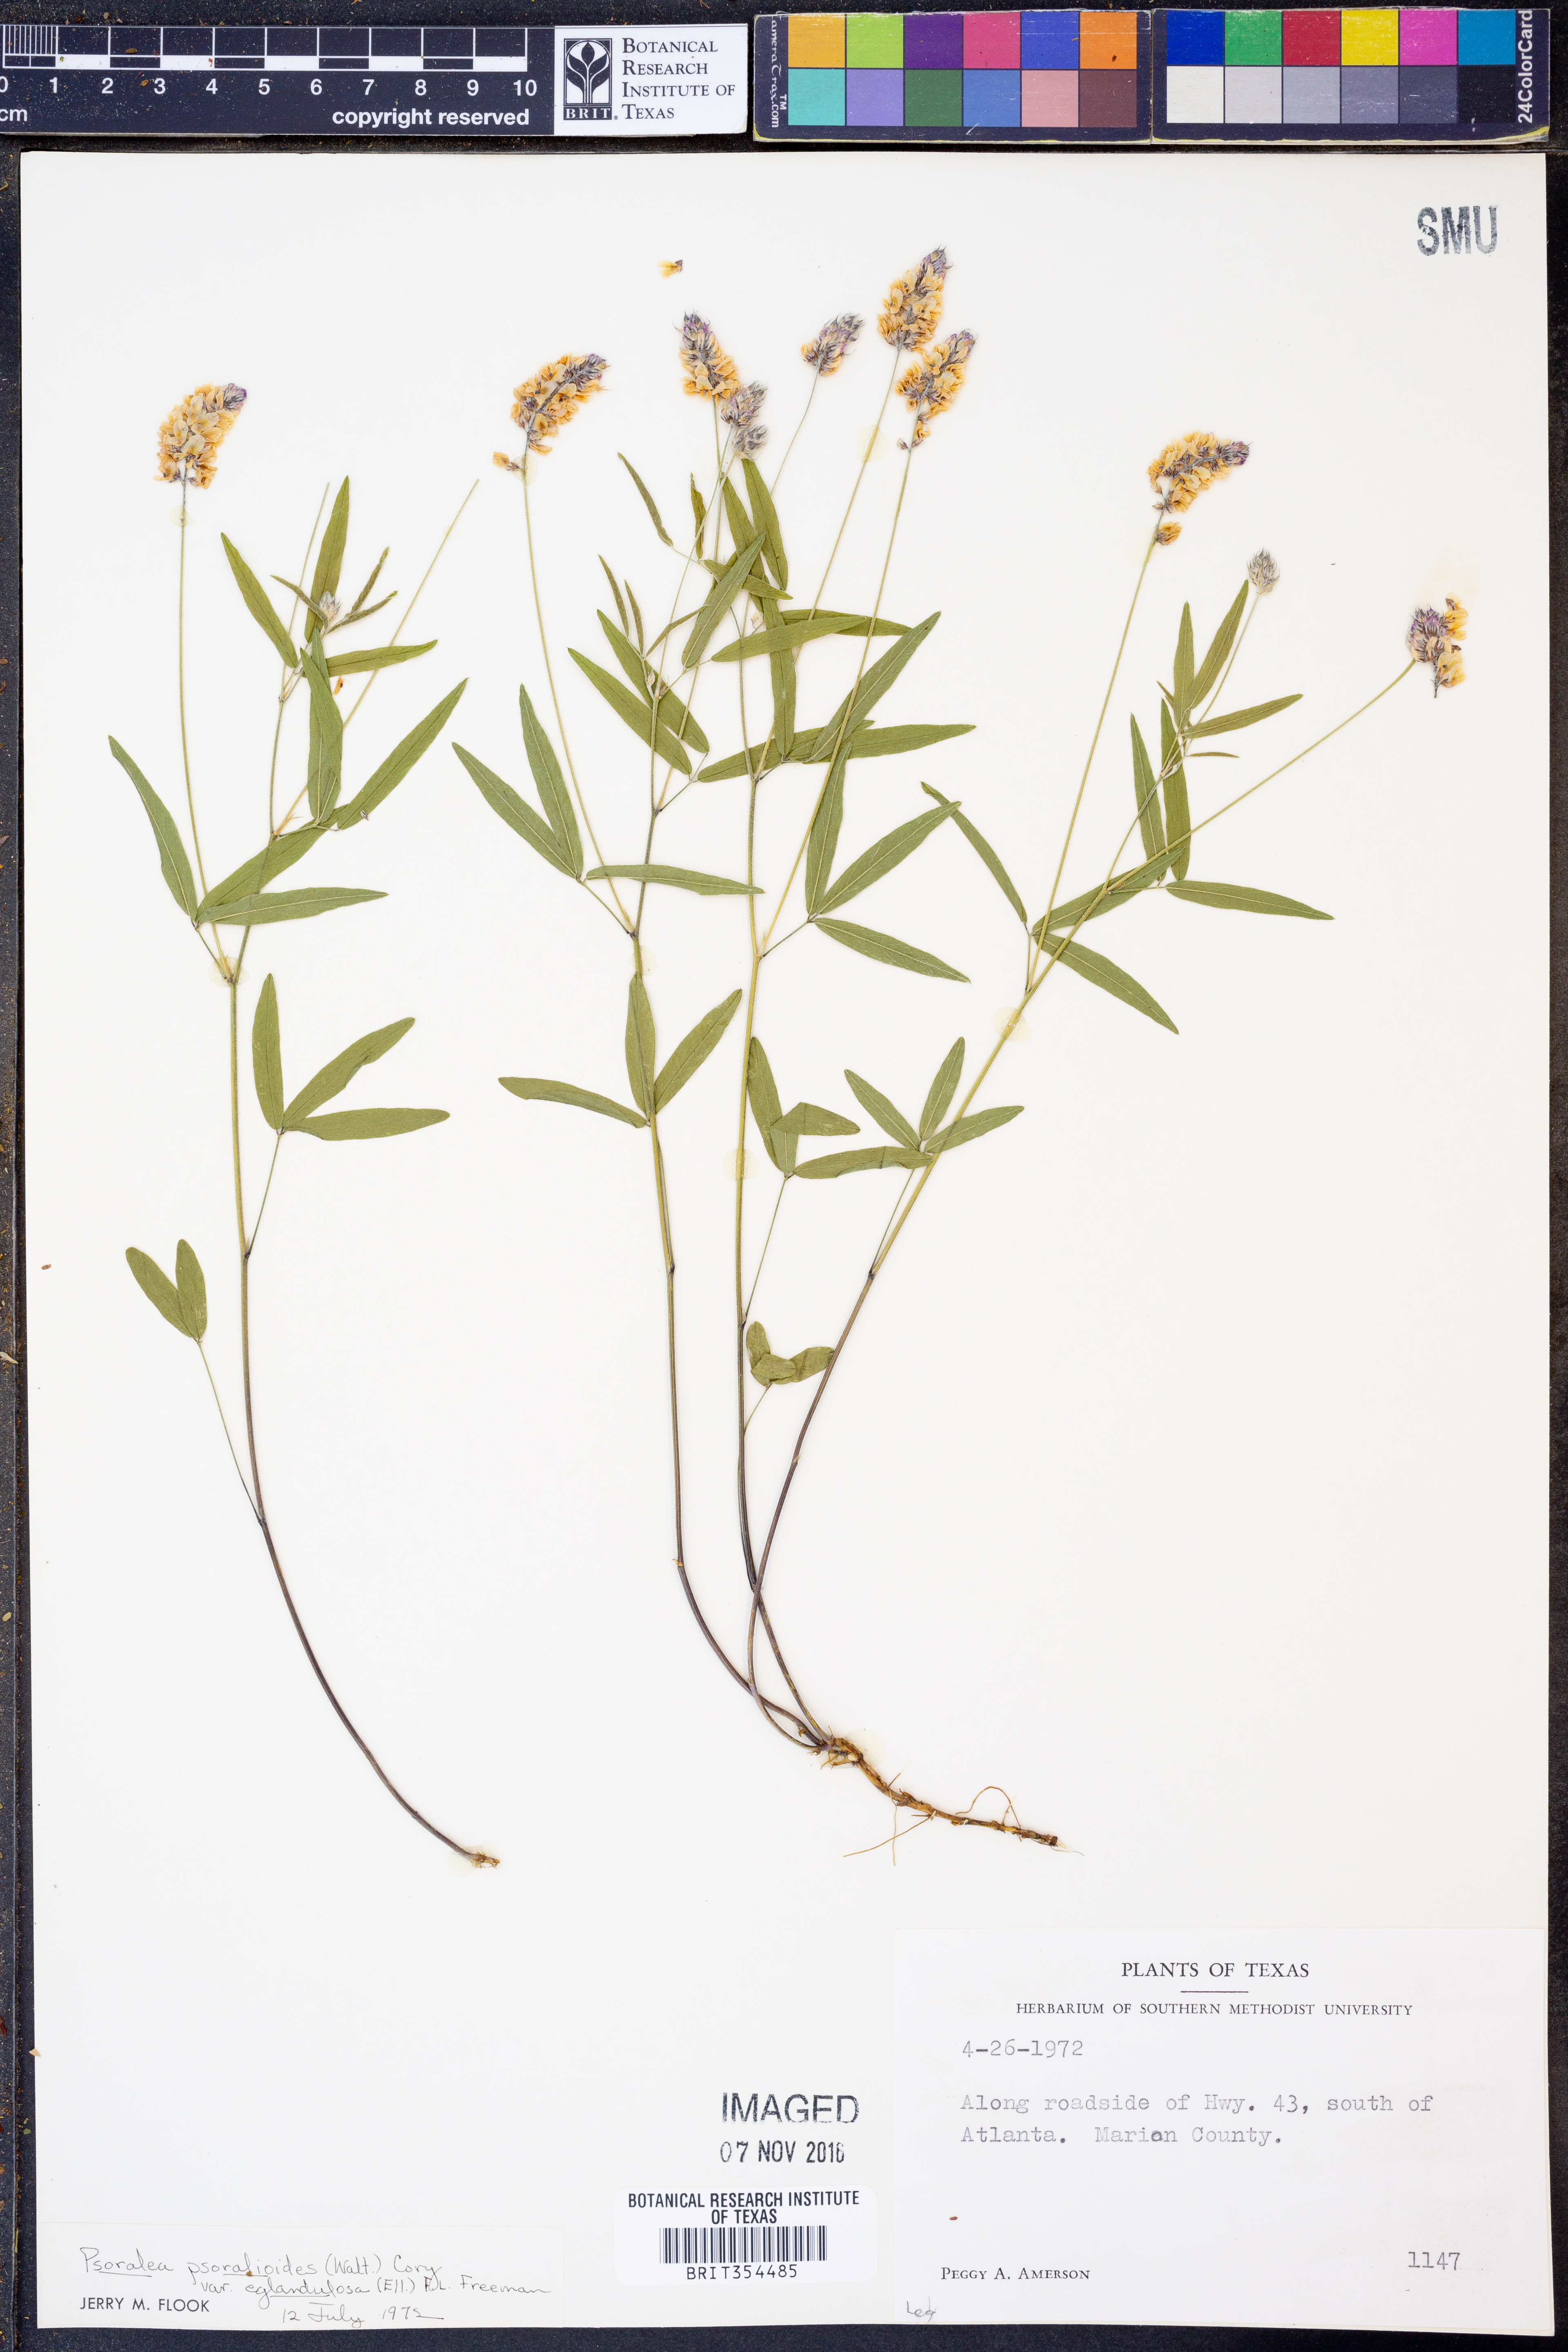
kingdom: Plantae
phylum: Tracheophyta
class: Magnoliopsida
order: Fabales
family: Fabaceae
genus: Orbexilum
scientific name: Orbexilum pedunculatum
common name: Sampson's snakeroot
